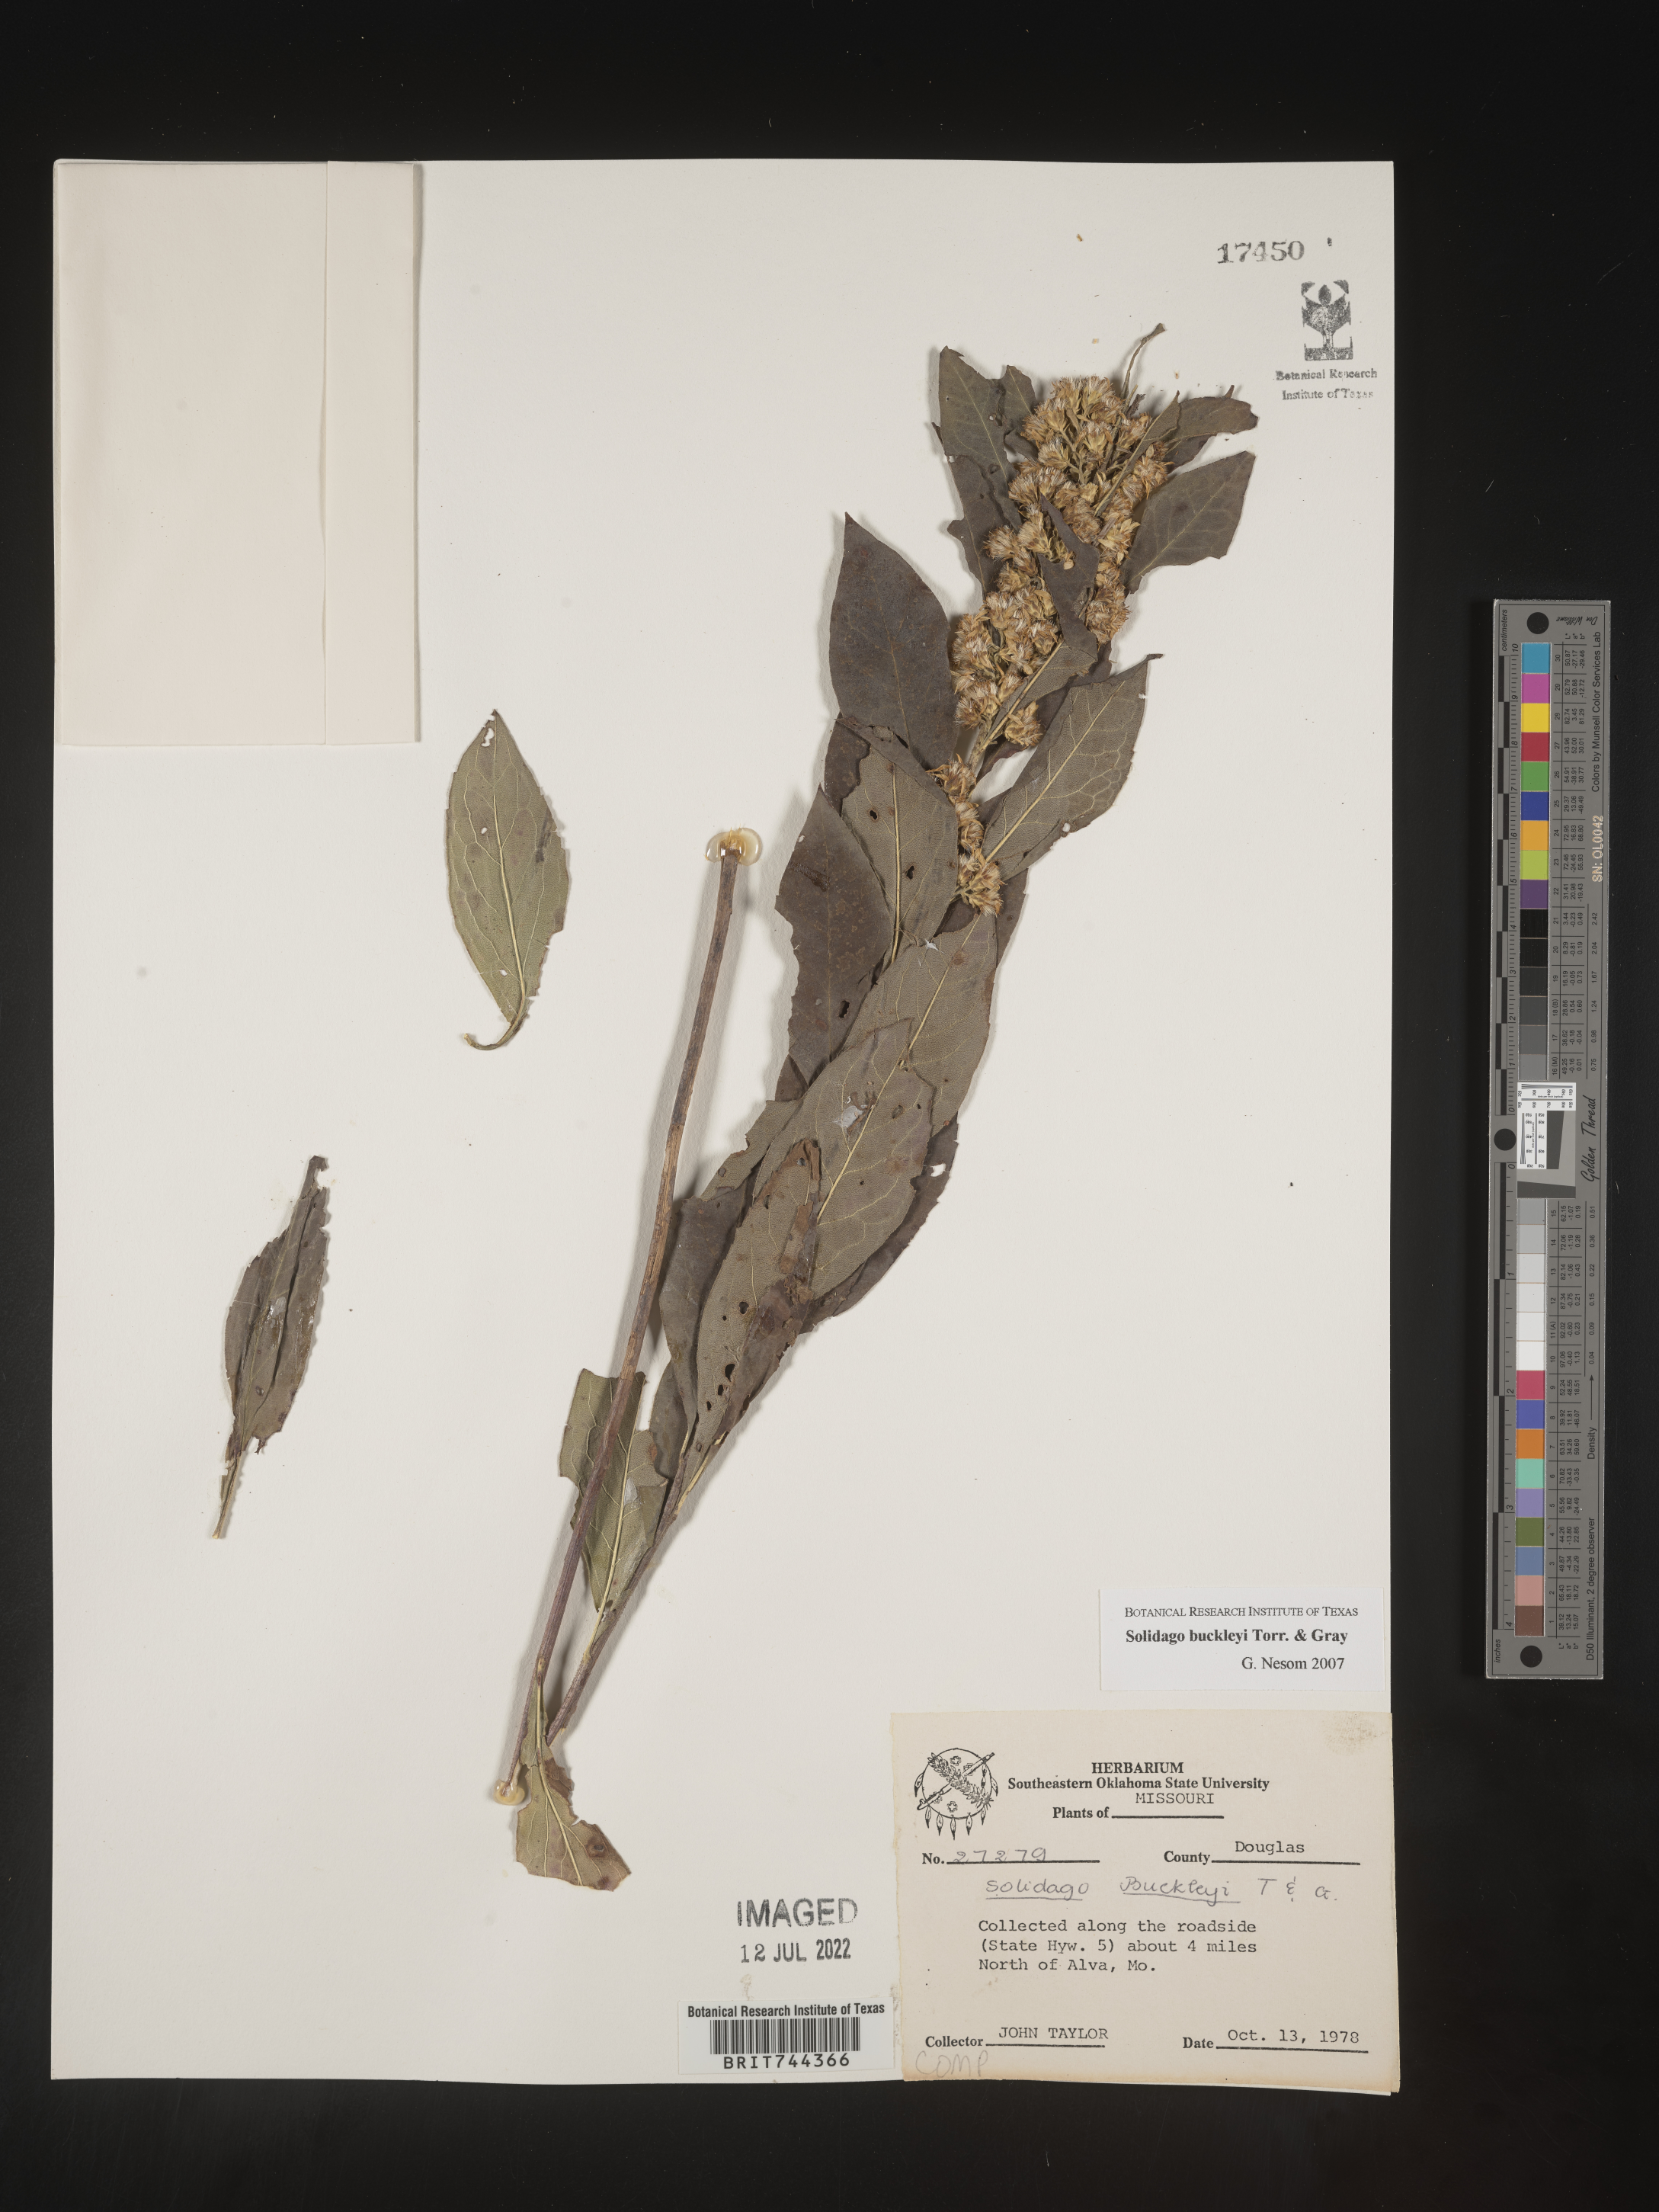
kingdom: Plantae
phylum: Tracheophyta
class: Magnoliopsida
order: Asterales
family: Asteraceae
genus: Solidago
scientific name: Solidago buckleyi
